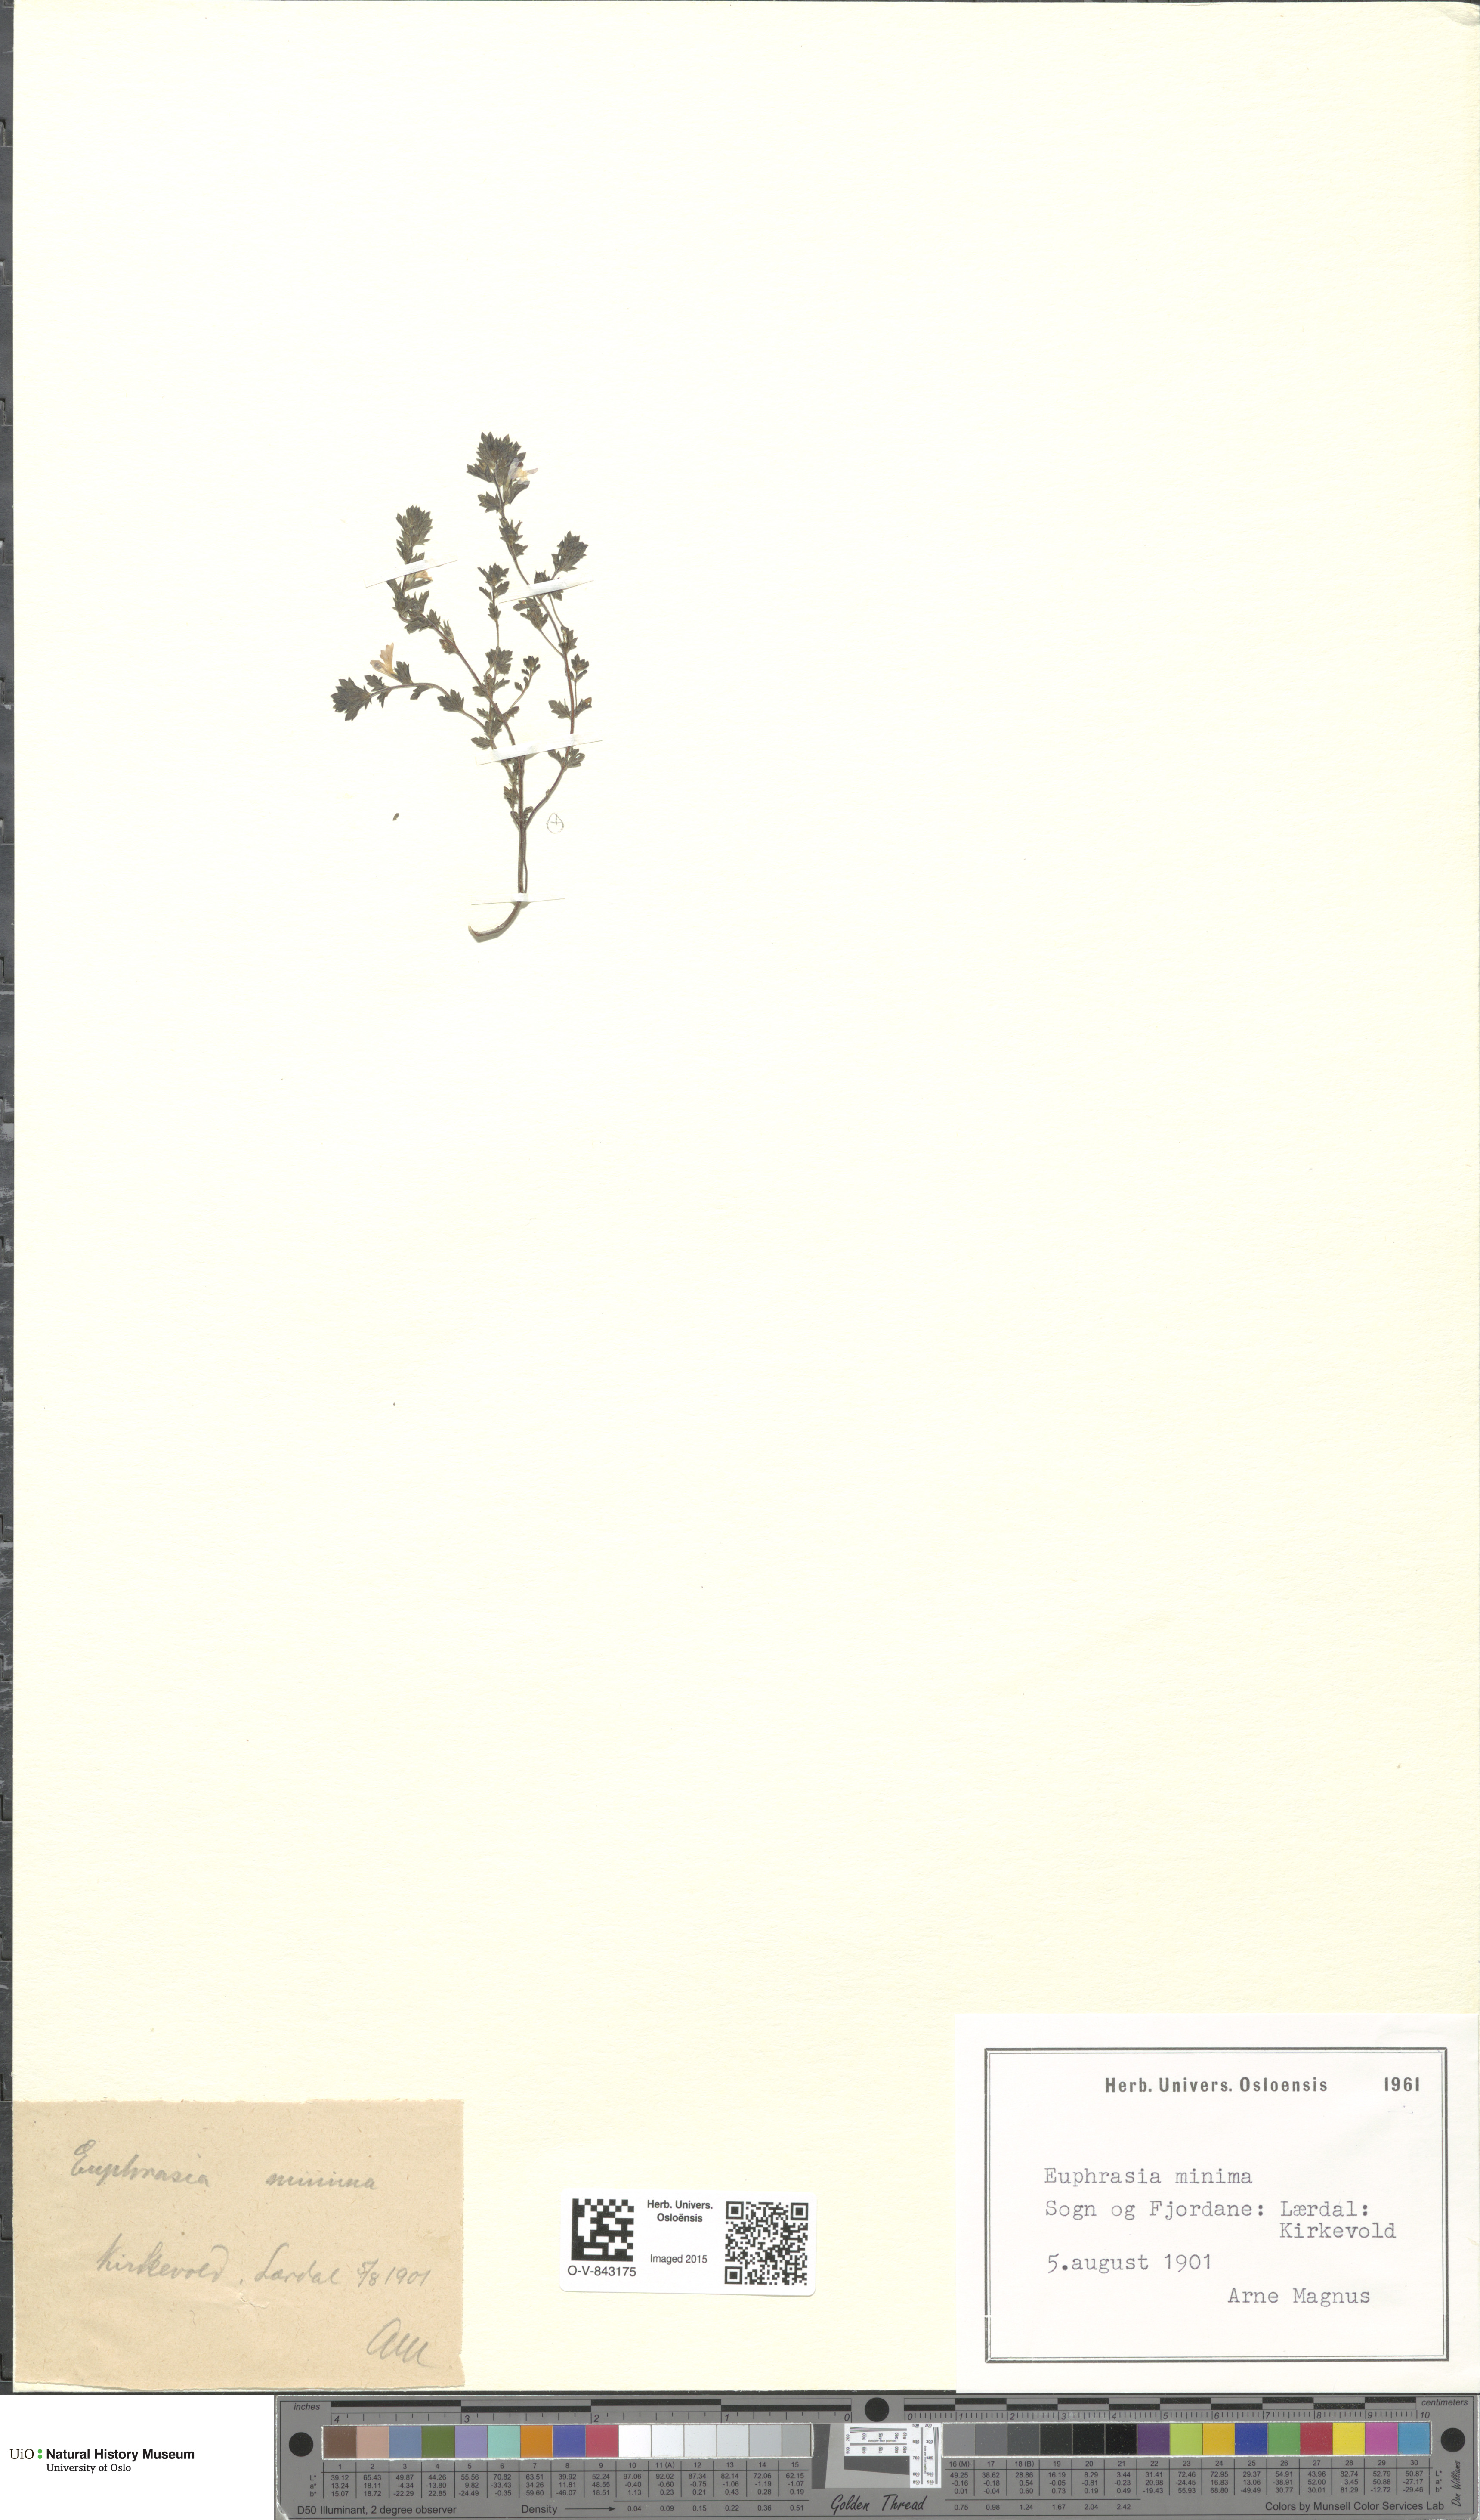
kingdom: Plantae
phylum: Tracheophyta
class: Magnoliopsida
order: Lamiales
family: Orobanchaceae
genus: Euphrasia
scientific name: Euphrasia wettsteinii
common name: Wettstein's eyebright
